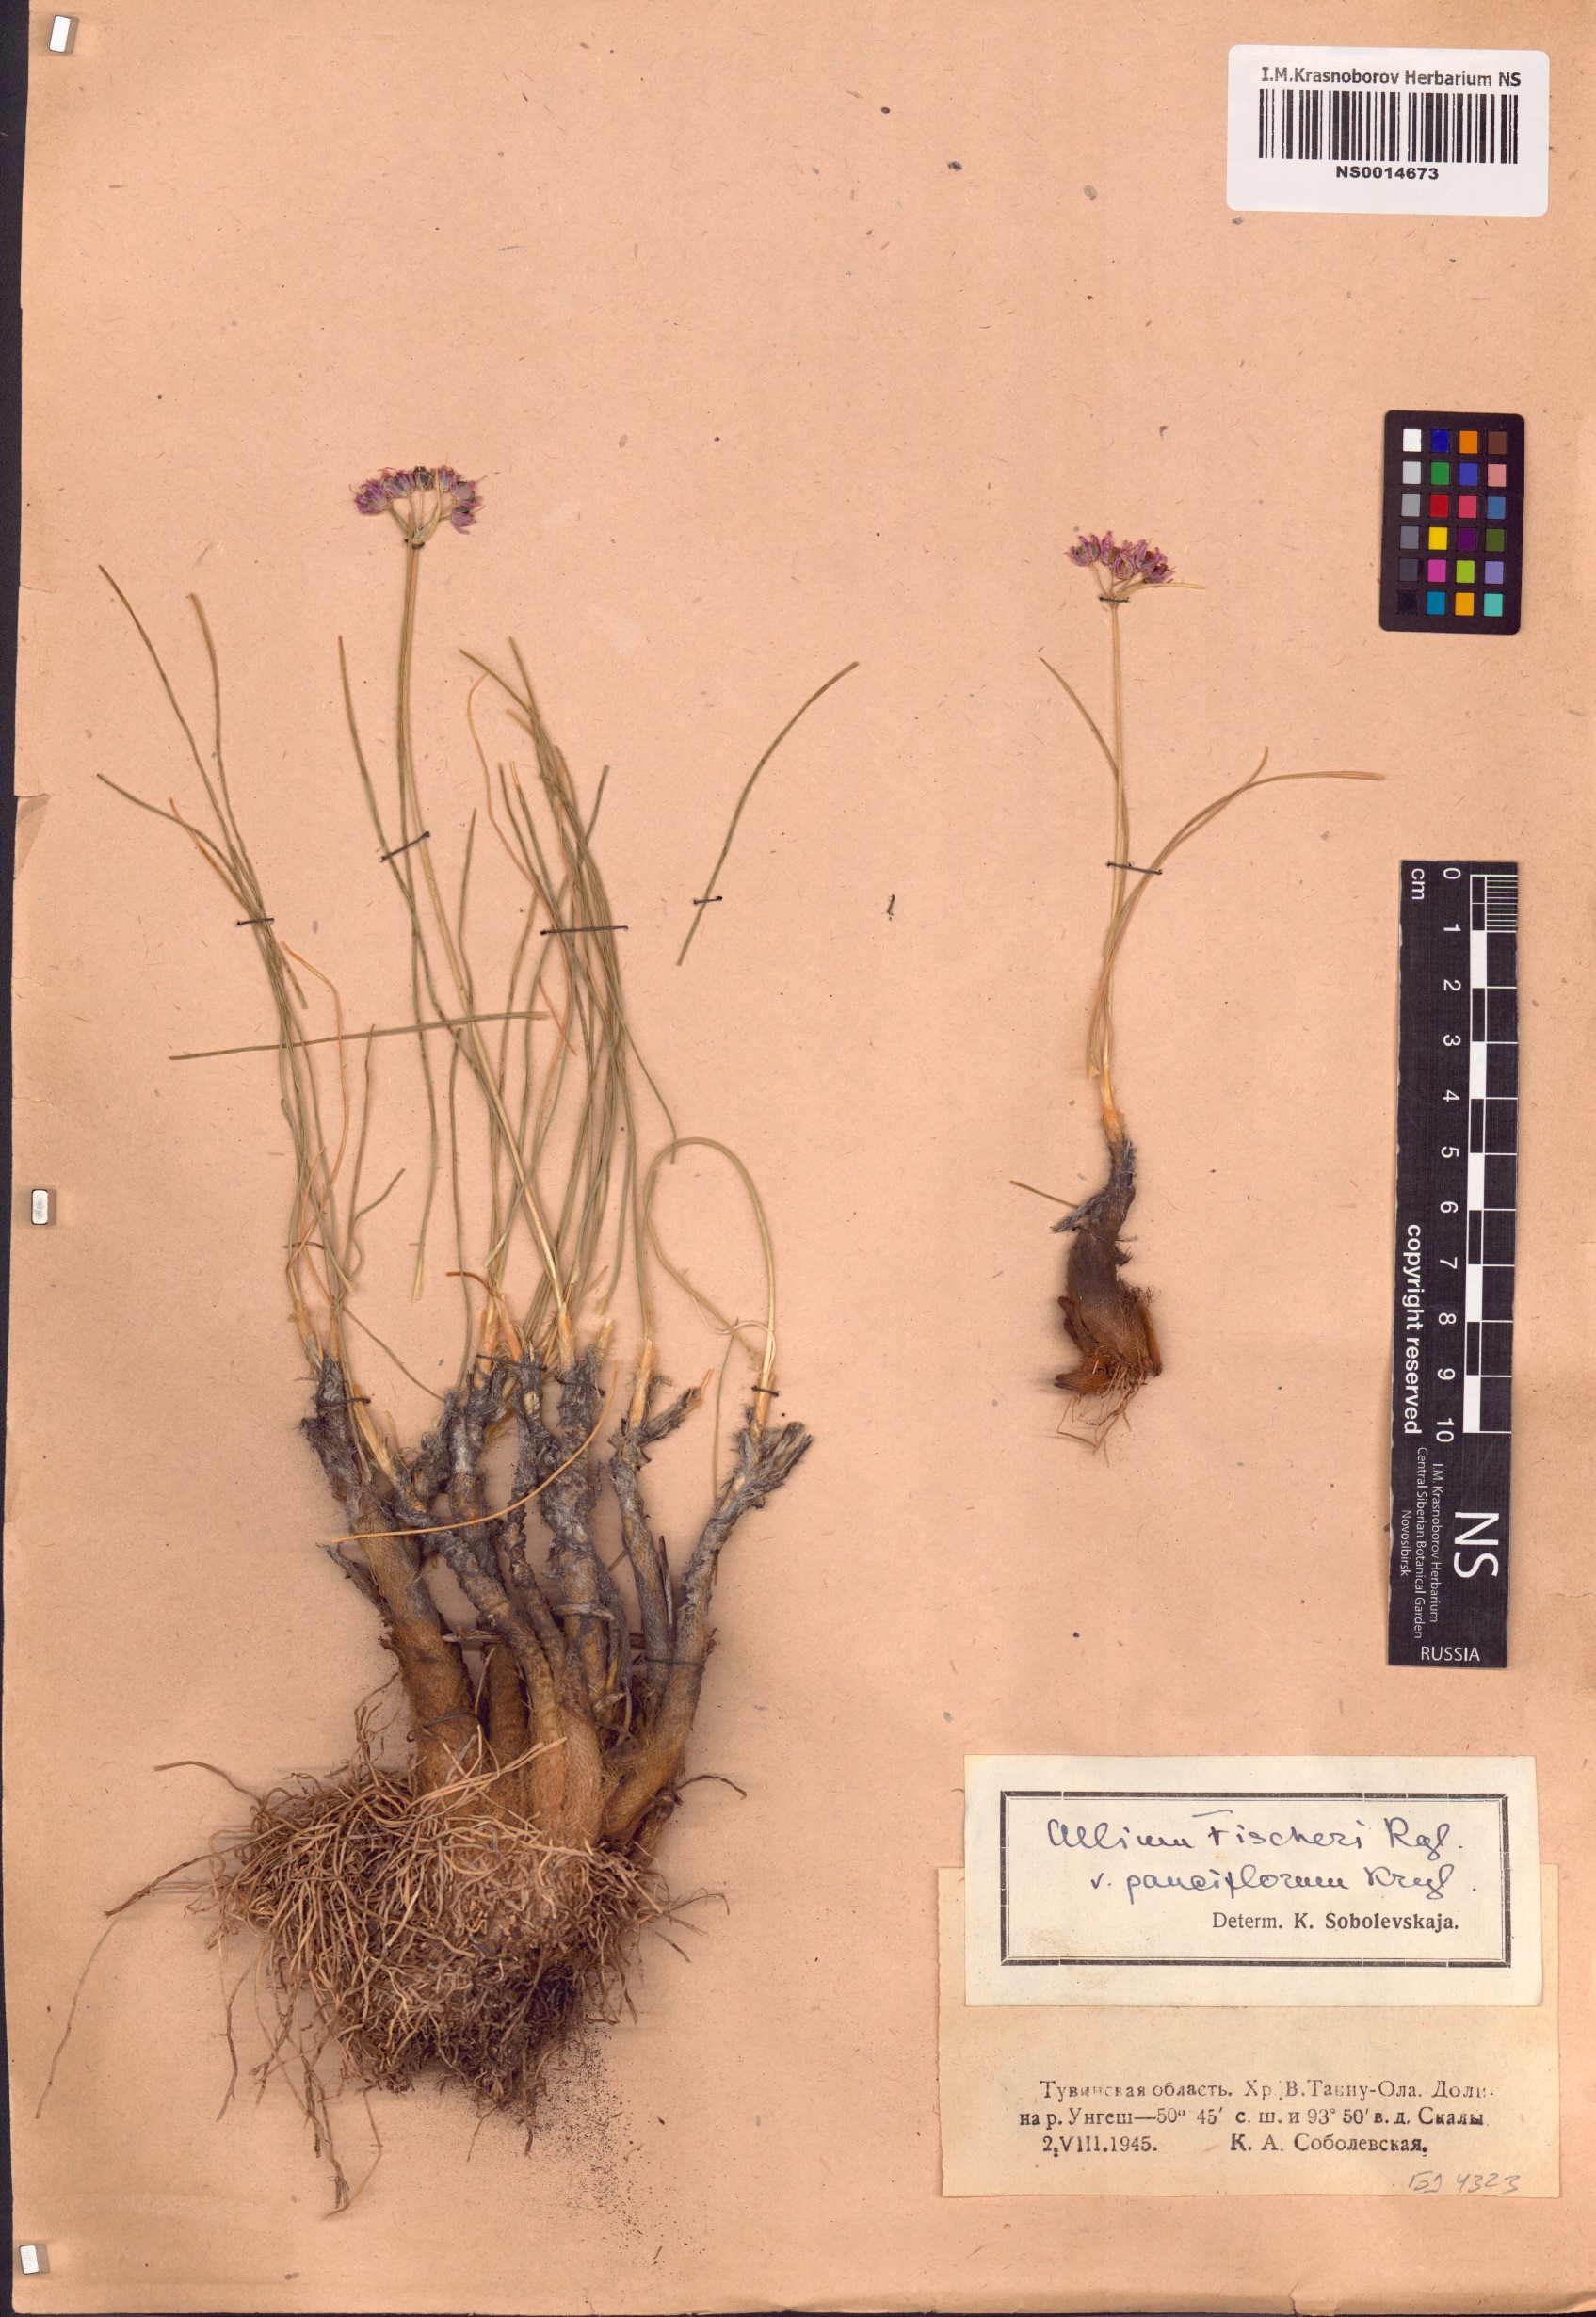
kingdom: Plantae
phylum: Tracheophyta
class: Liliopsida
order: Asparagales
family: Amaryllidaceae
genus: Allium
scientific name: Allium eduardi
